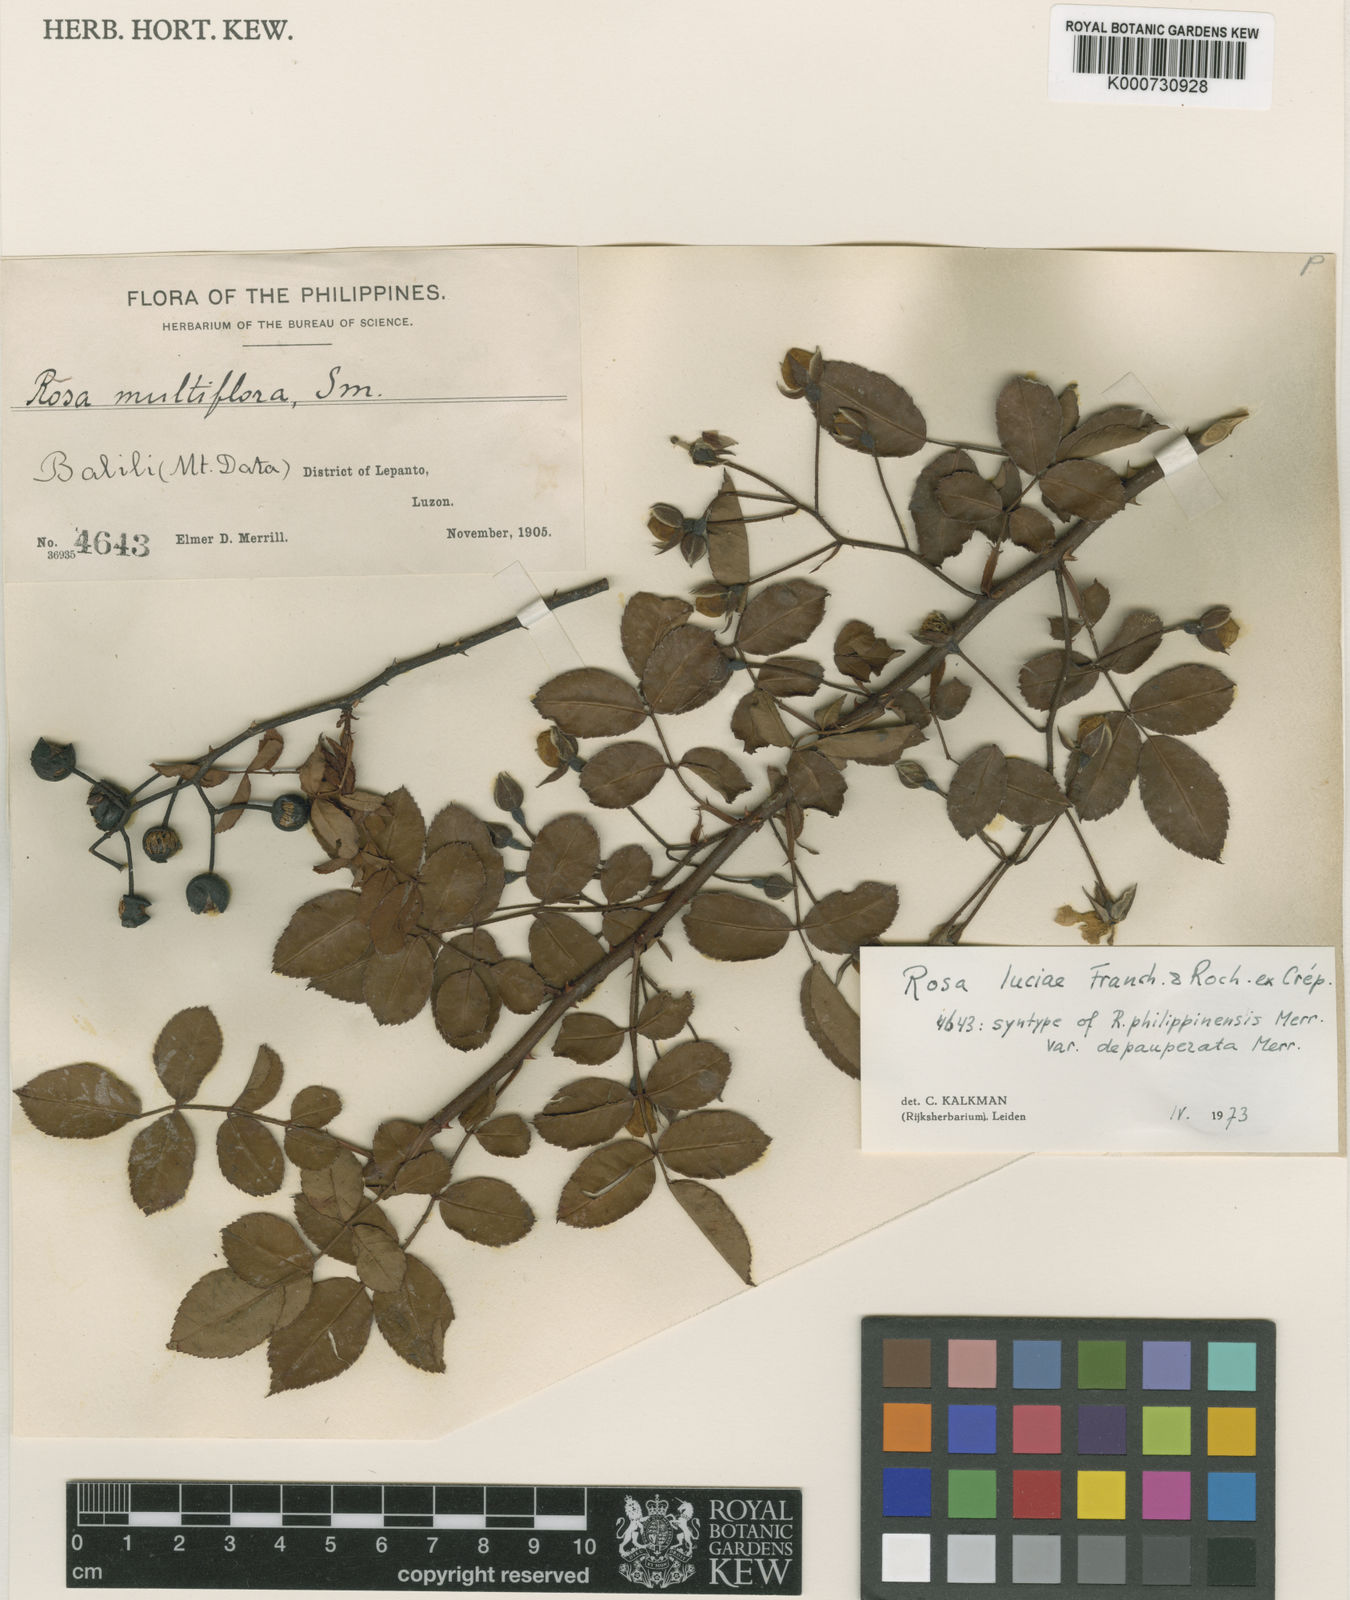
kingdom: Plantae
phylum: Tracheophyta
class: Magnoliopsida
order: Rosales
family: Rosaceae
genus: Rosa
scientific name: Rosa
